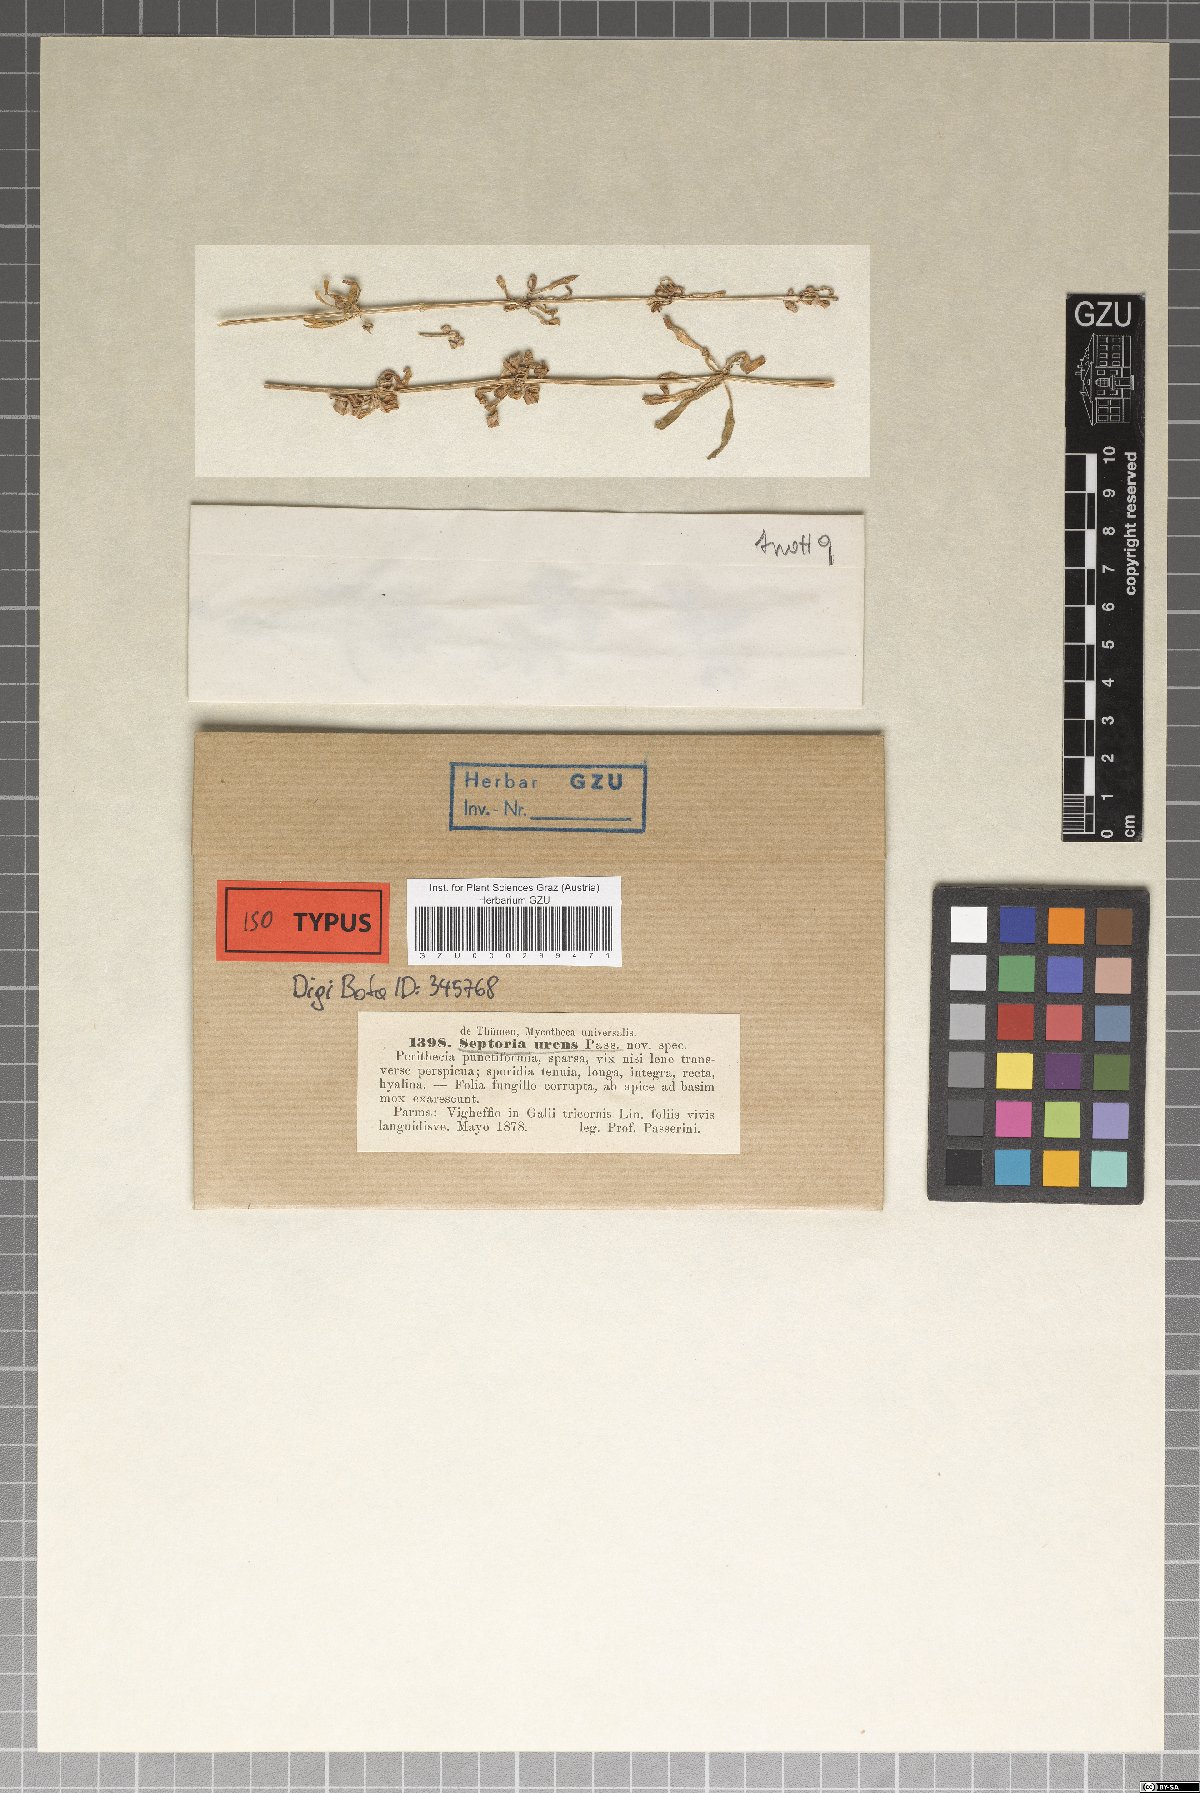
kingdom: Fungi
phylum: Ascomycota
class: Dothideomycetes
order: Mycosphaerellales
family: Mycosphaerellaceae
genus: Septoria
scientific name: Septoria
